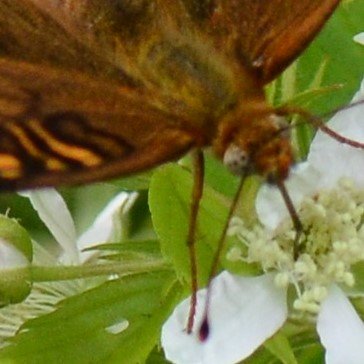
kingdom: Animalia
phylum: Arthropoda
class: Insecta
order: Lepidoptera
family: Nymphalidae
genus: Speyeria
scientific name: Speyeria atlantis
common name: Atlantis Fritillary
